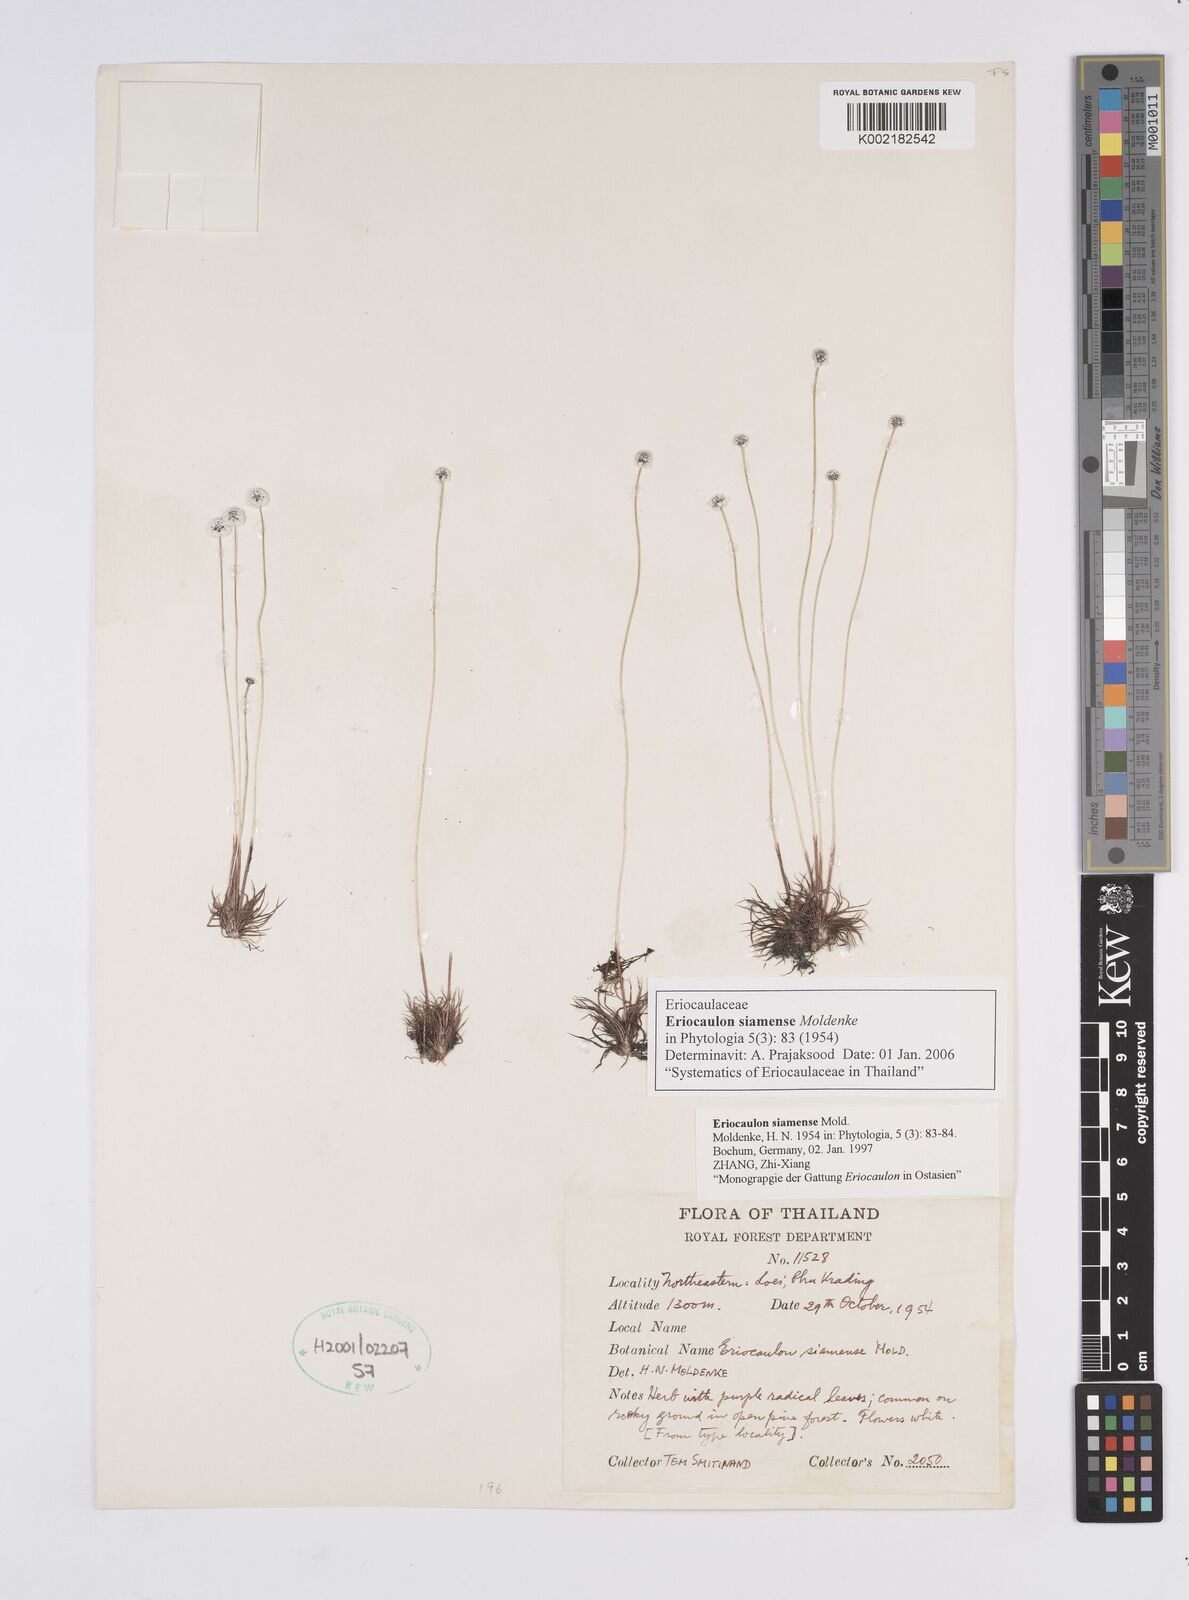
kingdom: Plantae
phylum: Tracheophyta
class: Liliopsida
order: Poales
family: Eriocaulaceae
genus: Eriocaulon
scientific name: Eriocaulon siamense
